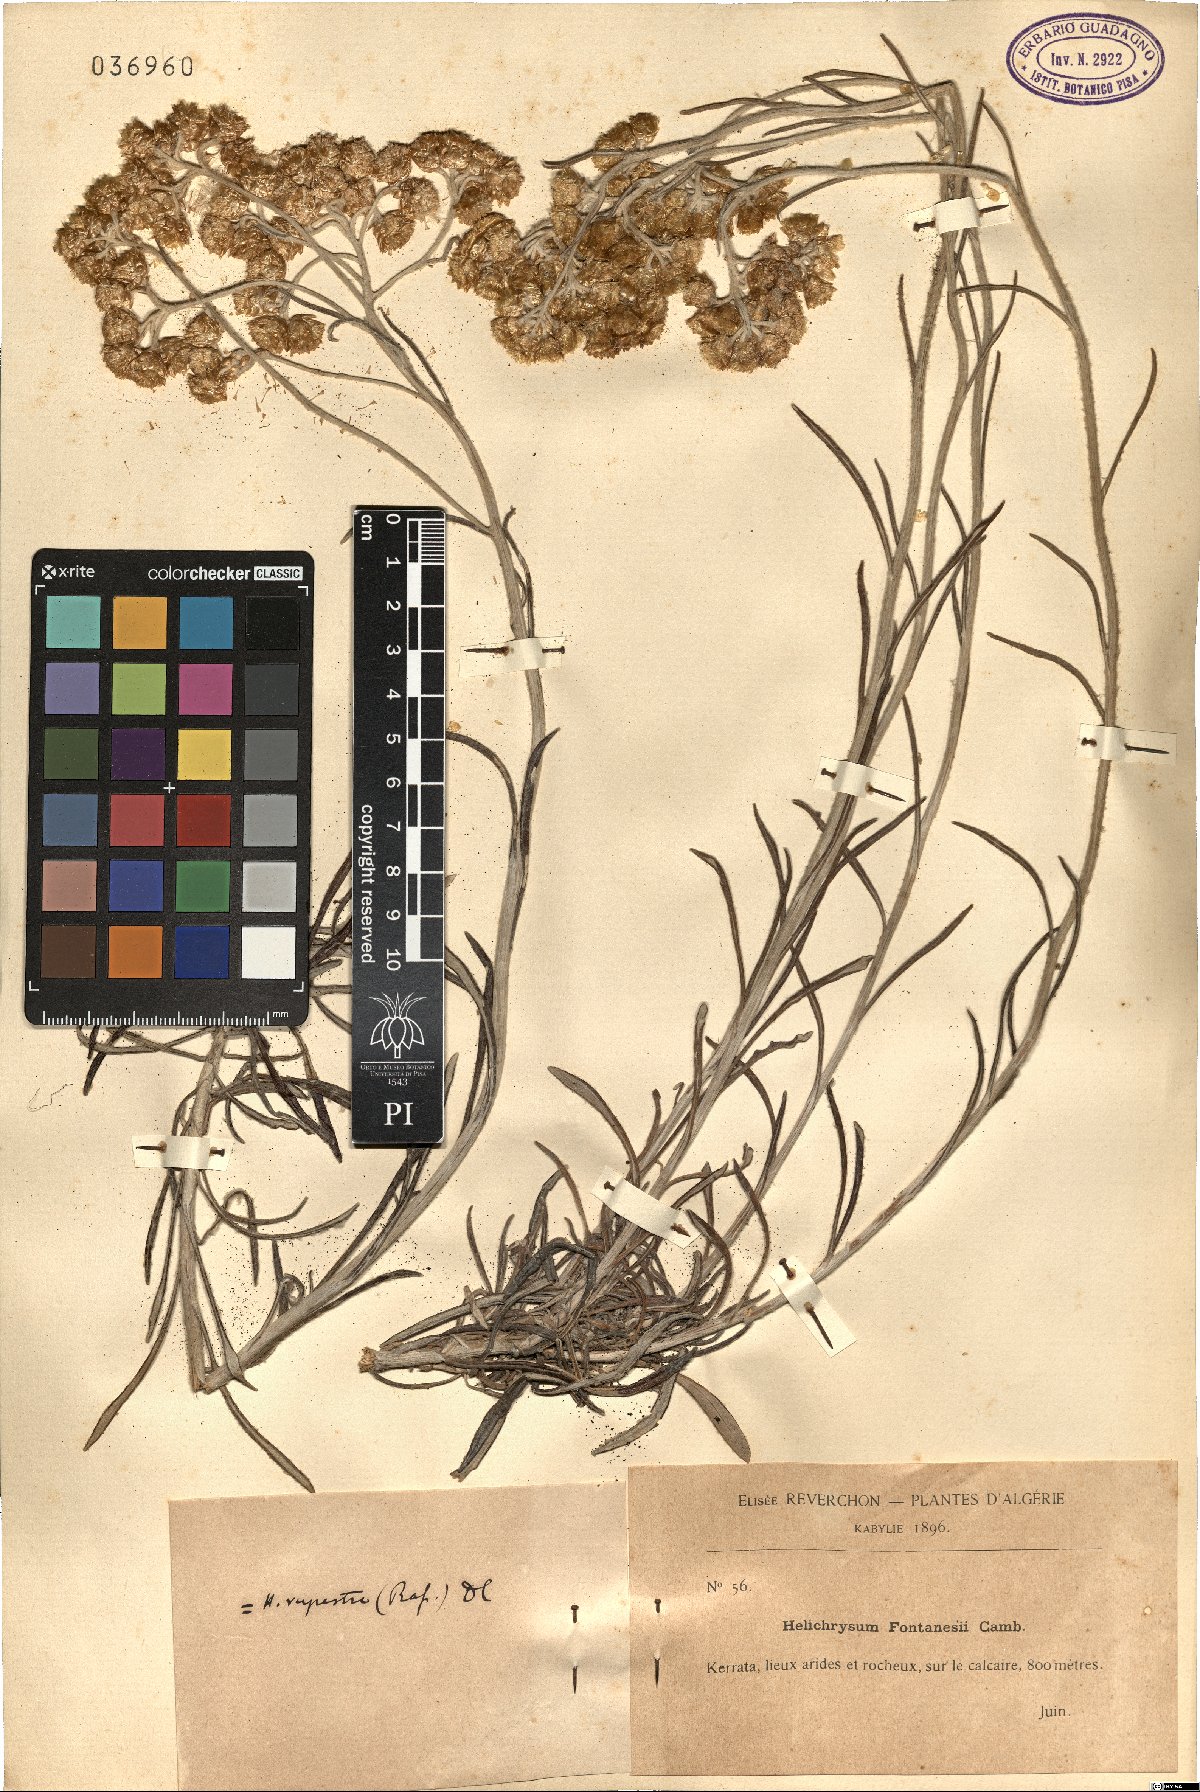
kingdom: Plantae
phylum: Tracheophyta
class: Magnoliopsida
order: Asterales
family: Asteraceae
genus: Helichrysum
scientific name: Helichrysum panormitanum
